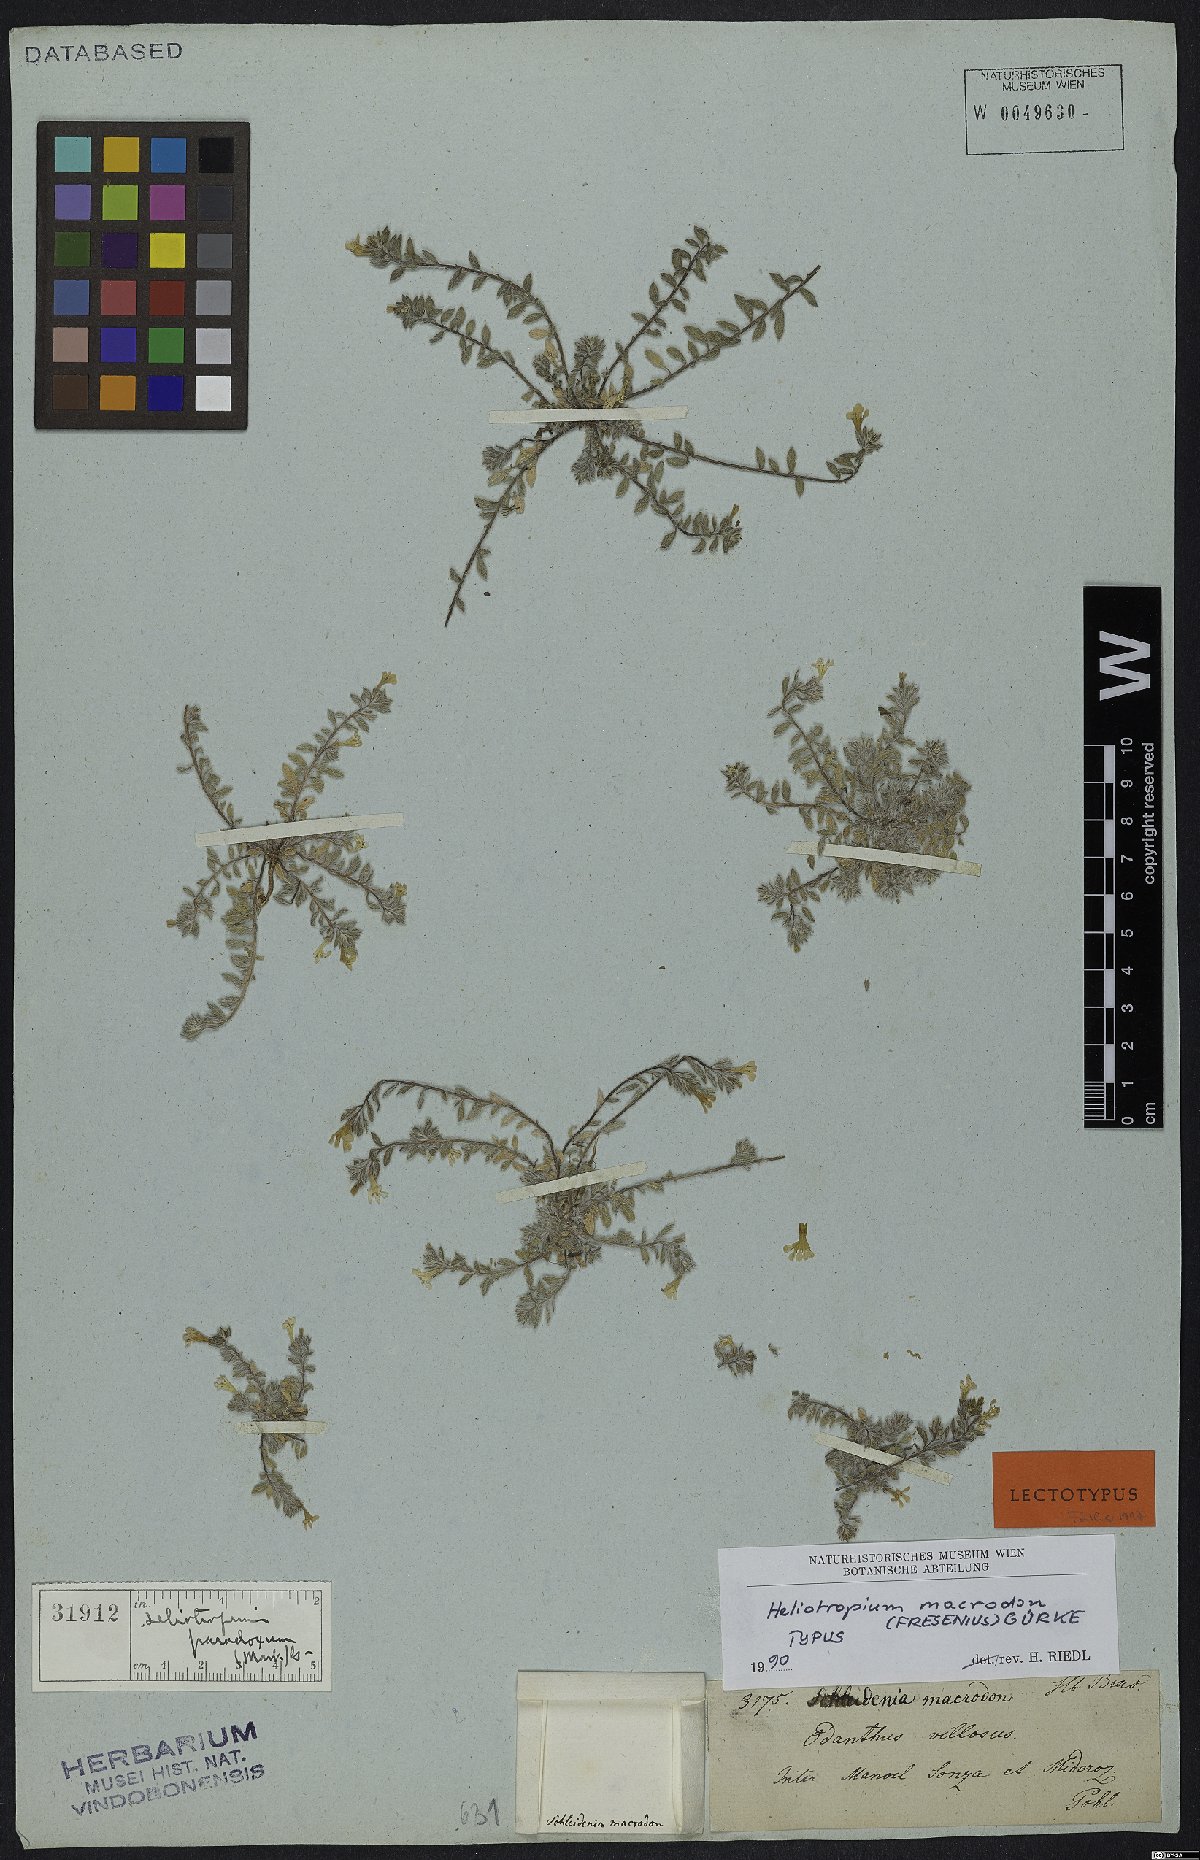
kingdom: Plantae
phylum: Tracheophyta
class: Magnoliopsida
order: Boraginales
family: Heliotropiaceae
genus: Heliotropium
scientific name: Heliotropium macrodon
